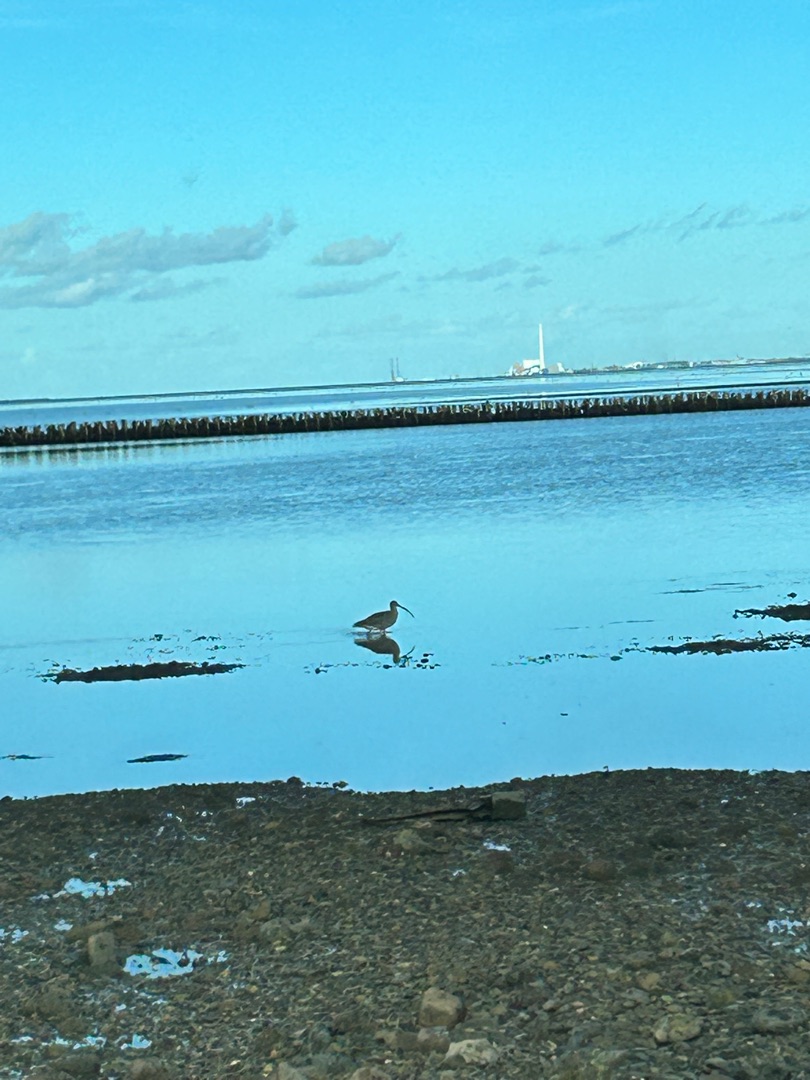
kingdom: Animalia
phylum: Chordata
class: Aves
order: Charadriiformes
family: Scolopacidae
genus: Numenius
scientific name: Numenius arquata
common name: Storspove
